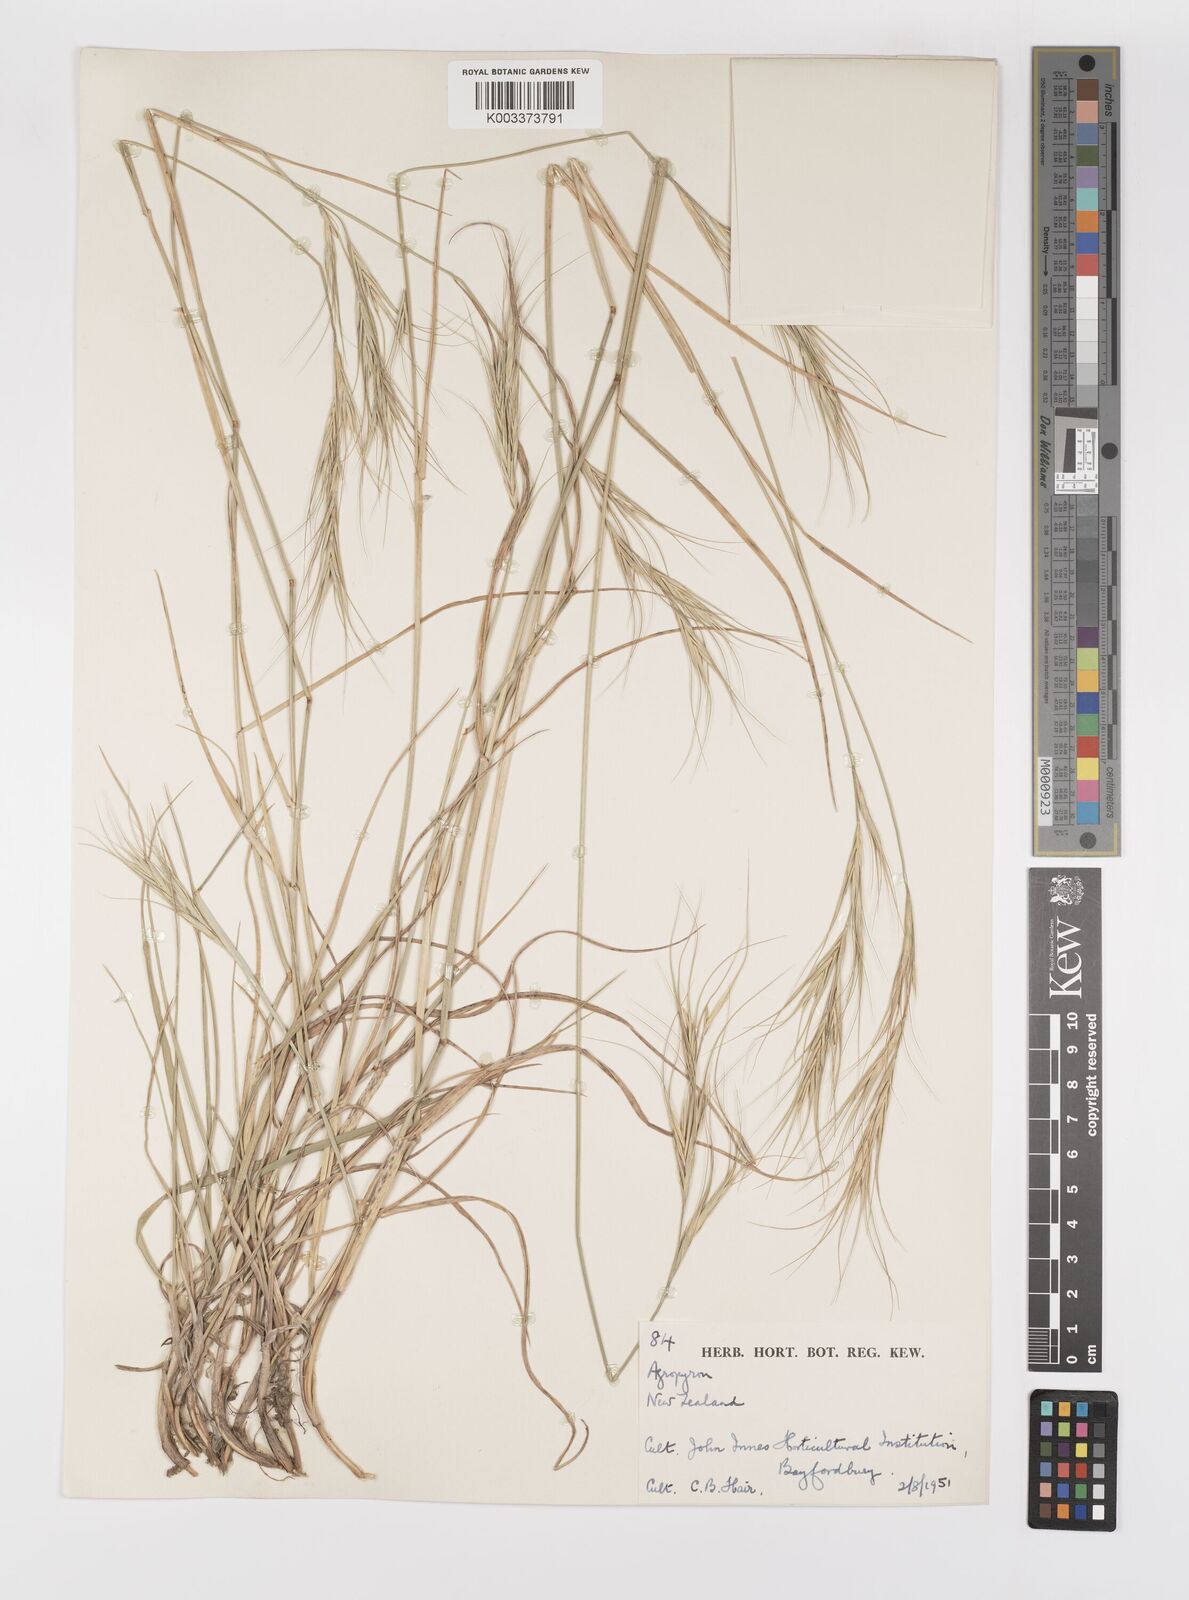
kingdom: Plantae
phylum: Tracheophyta
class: Liliopsida
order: Poales
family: Poaceae
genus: Elymus
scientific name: Elymus
